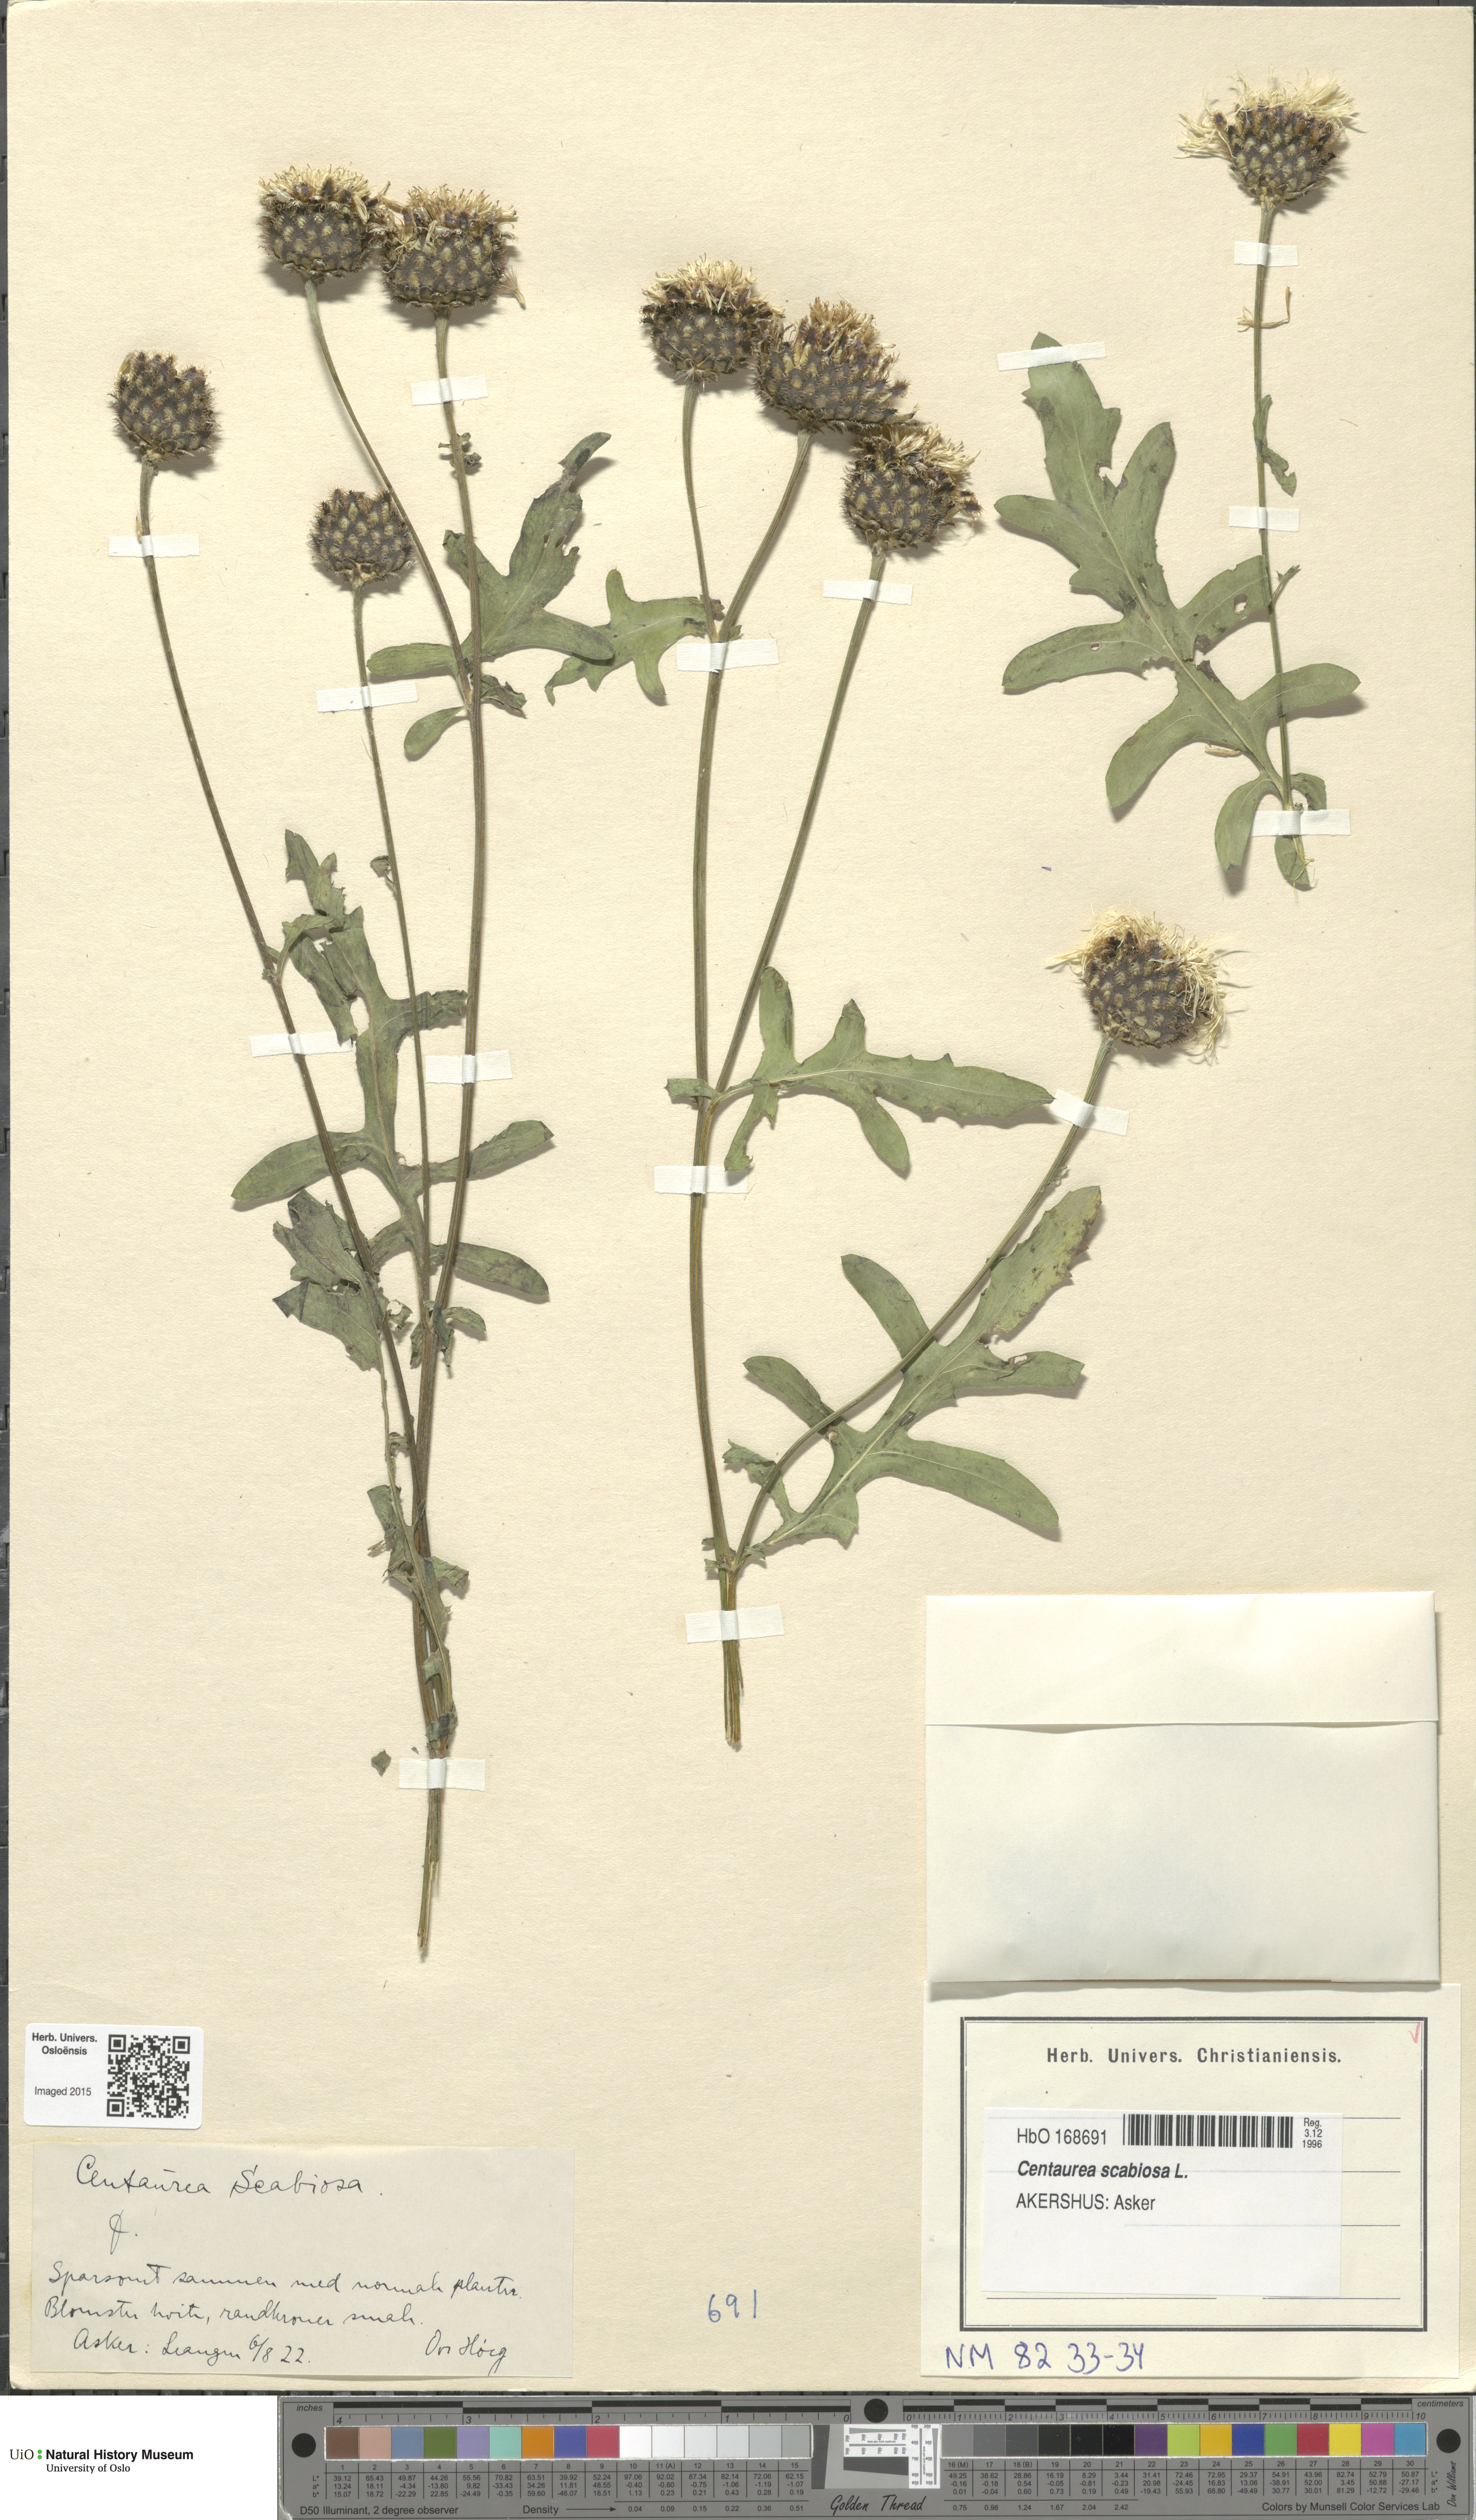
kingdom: Plantae
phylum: Tracheophyta
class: Magnoliopsida
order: Asterales
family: Asteraceae
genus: Centaurea
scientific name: Centaurea scabiosa
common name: Greater knapweed
